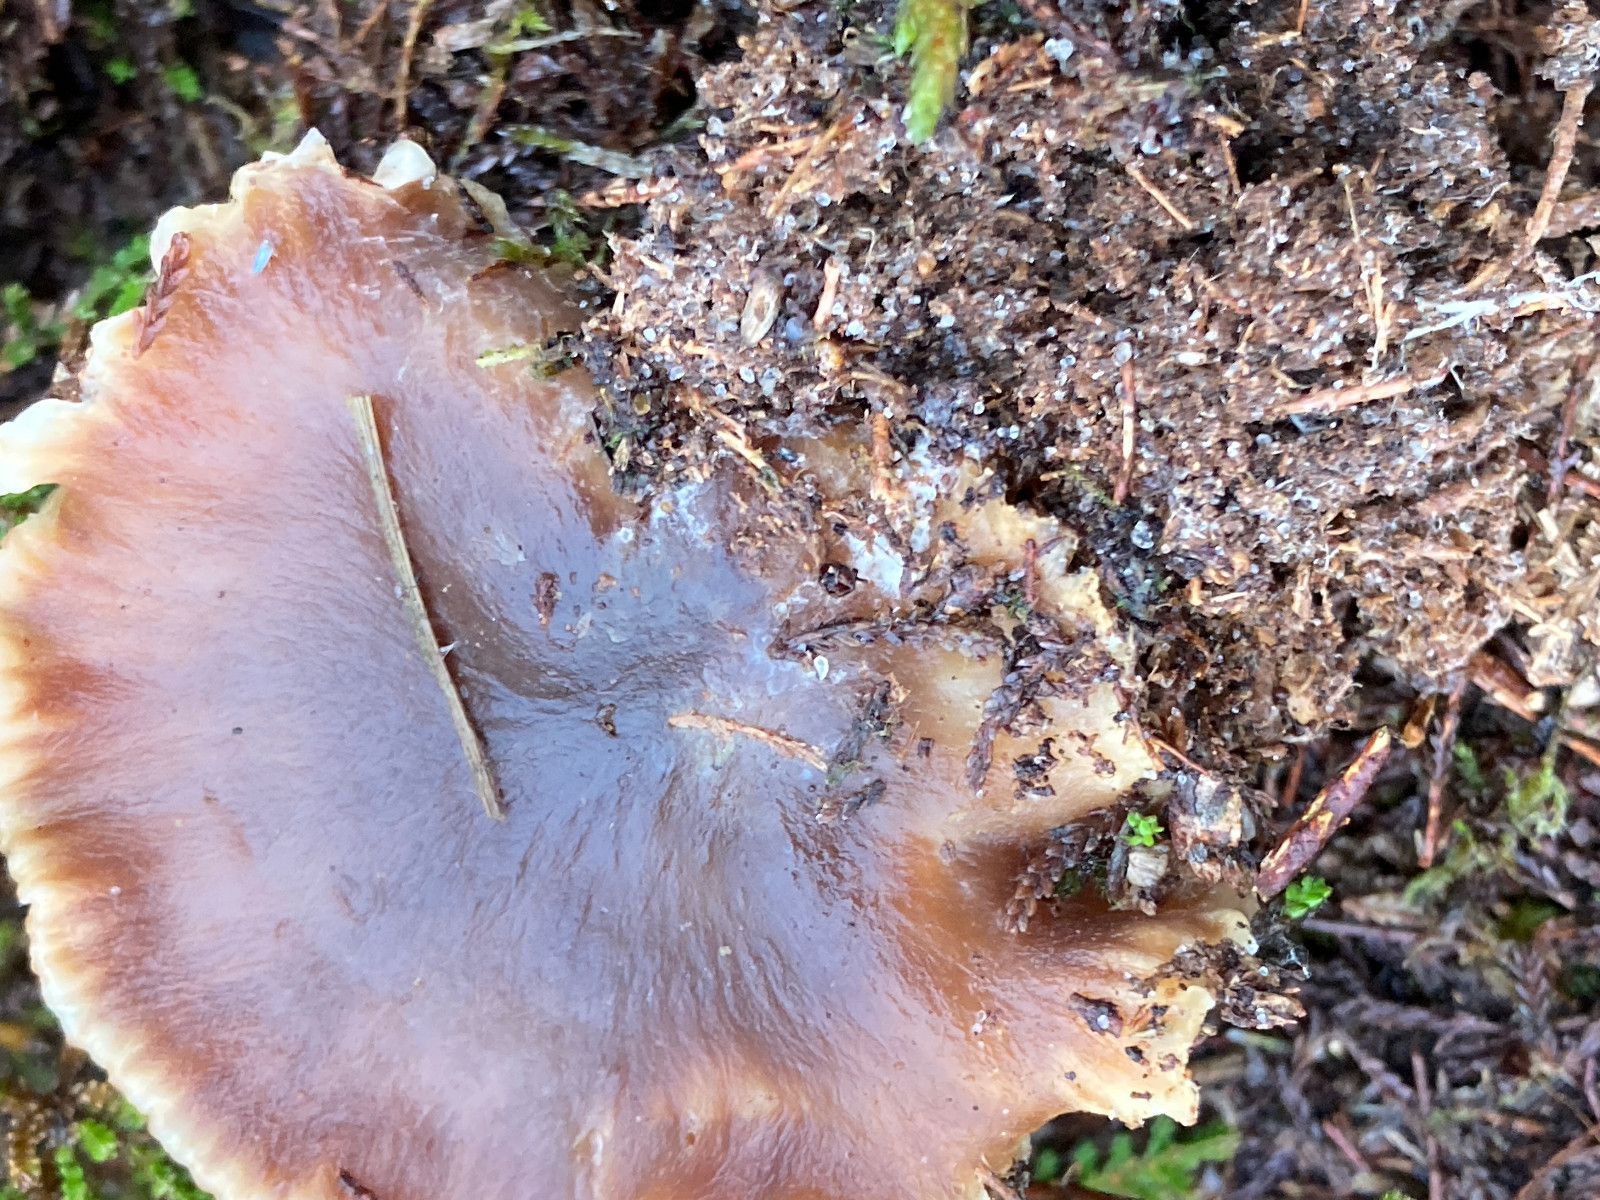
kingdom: Fungi
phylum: Basidiomycota
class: Agaricomycetes
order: Agaricales
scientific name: Agaricales
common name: champignonordenen
